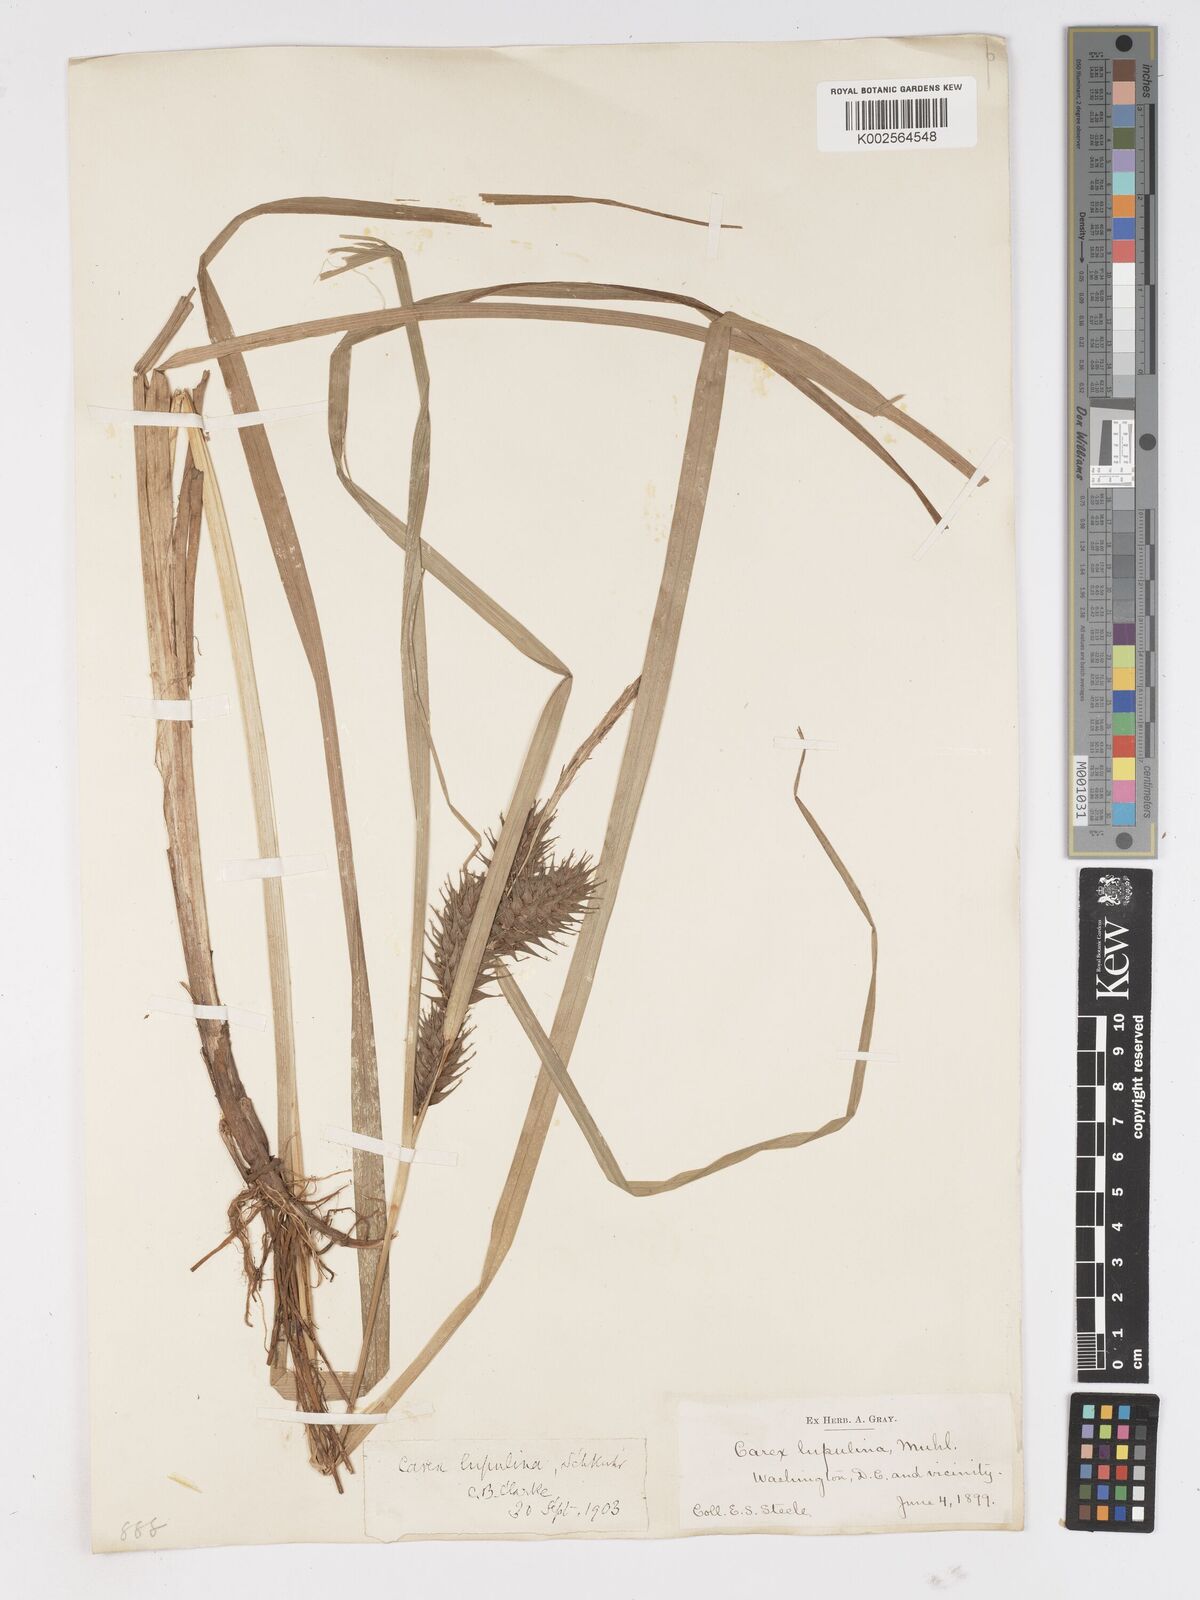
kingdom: Plantae
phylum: Tracheophyta
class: Liliopsida
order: Poales
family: Cyperaceae
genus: Carex
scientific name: Carex lupulina
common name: Hop sedge
